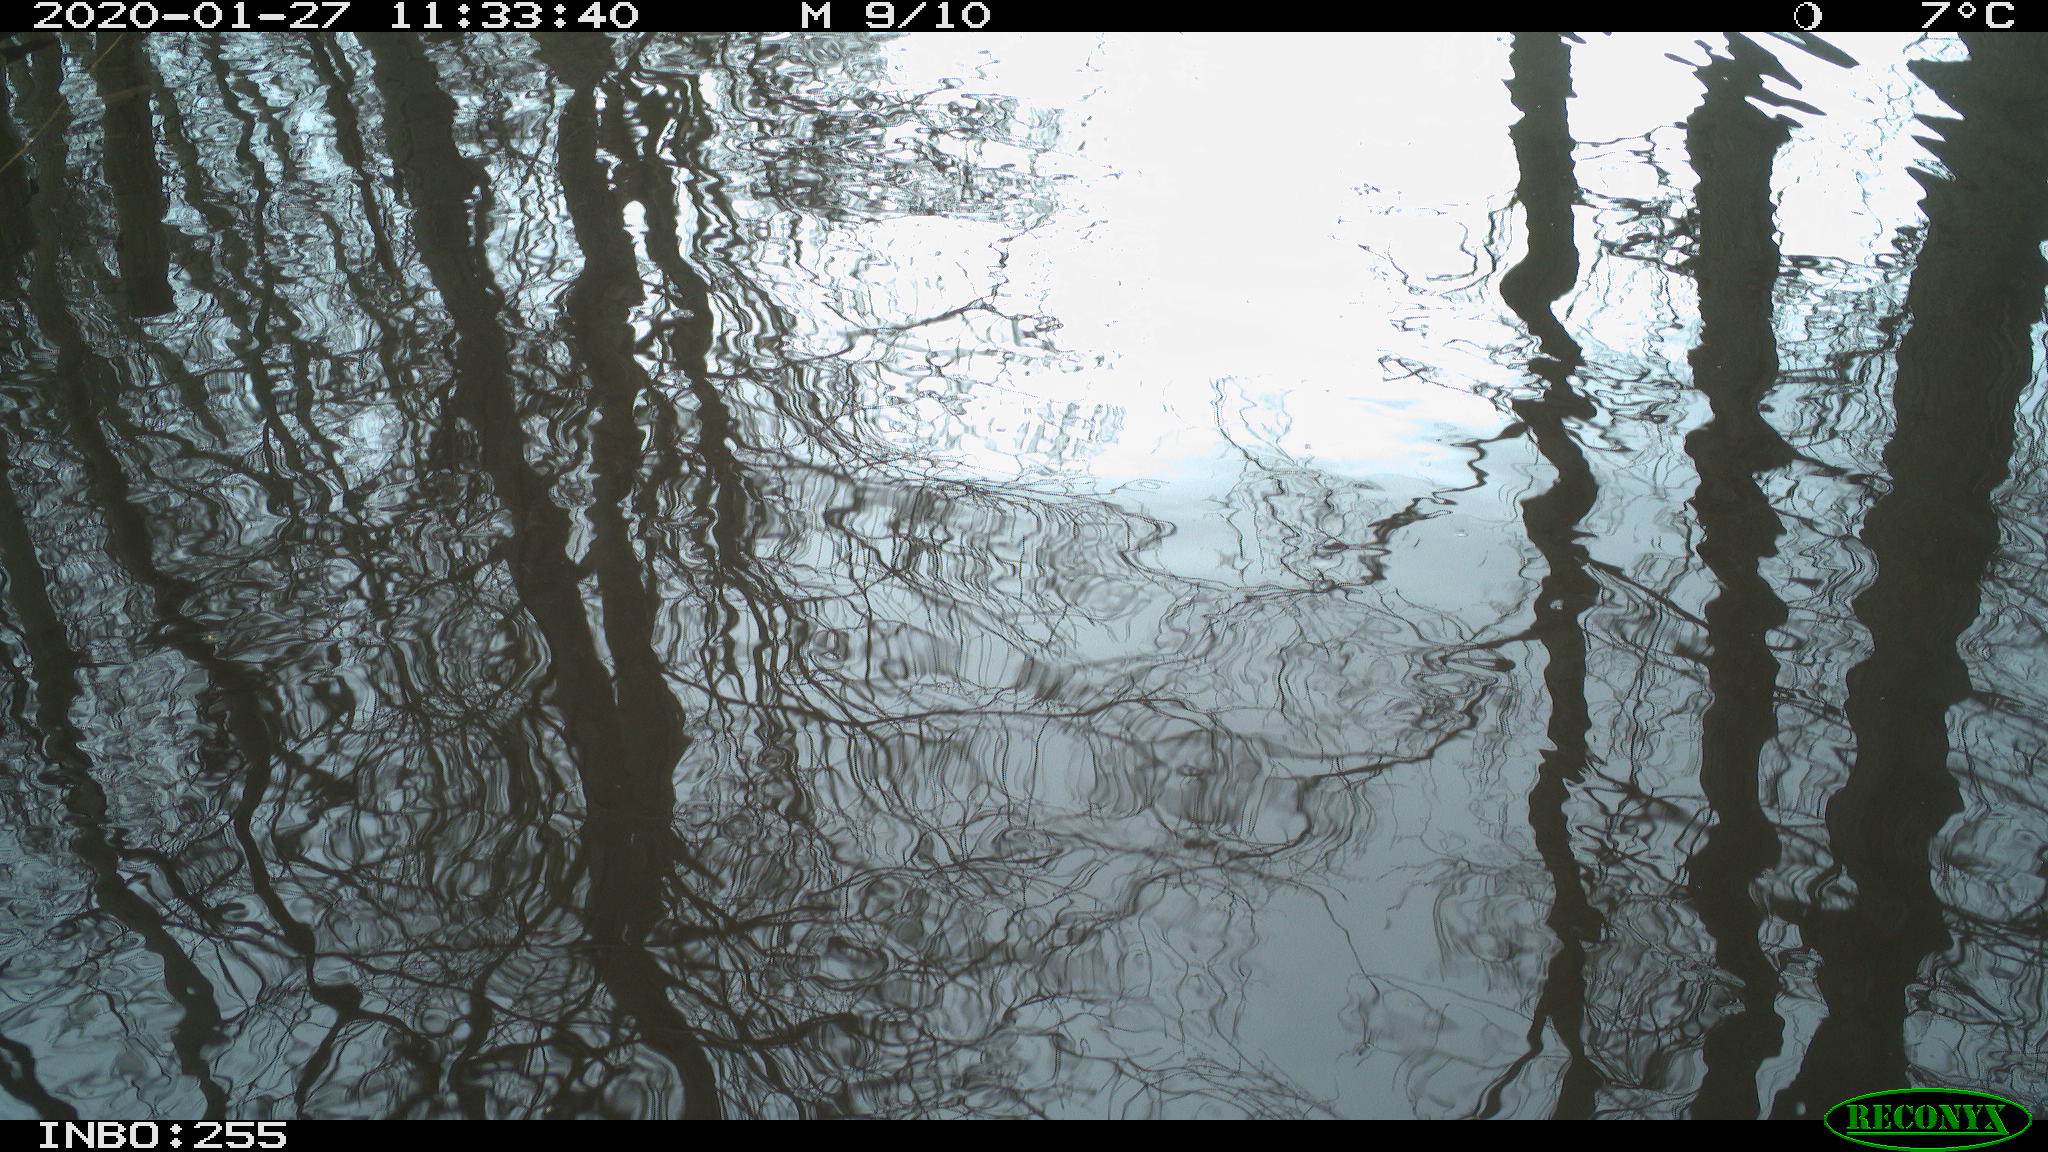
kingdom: Animalia
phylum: Chordata
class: Aves
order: Gruiformes
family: Rallidae
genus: Fulica
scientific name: Fulica atra
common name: Eurasian coot
